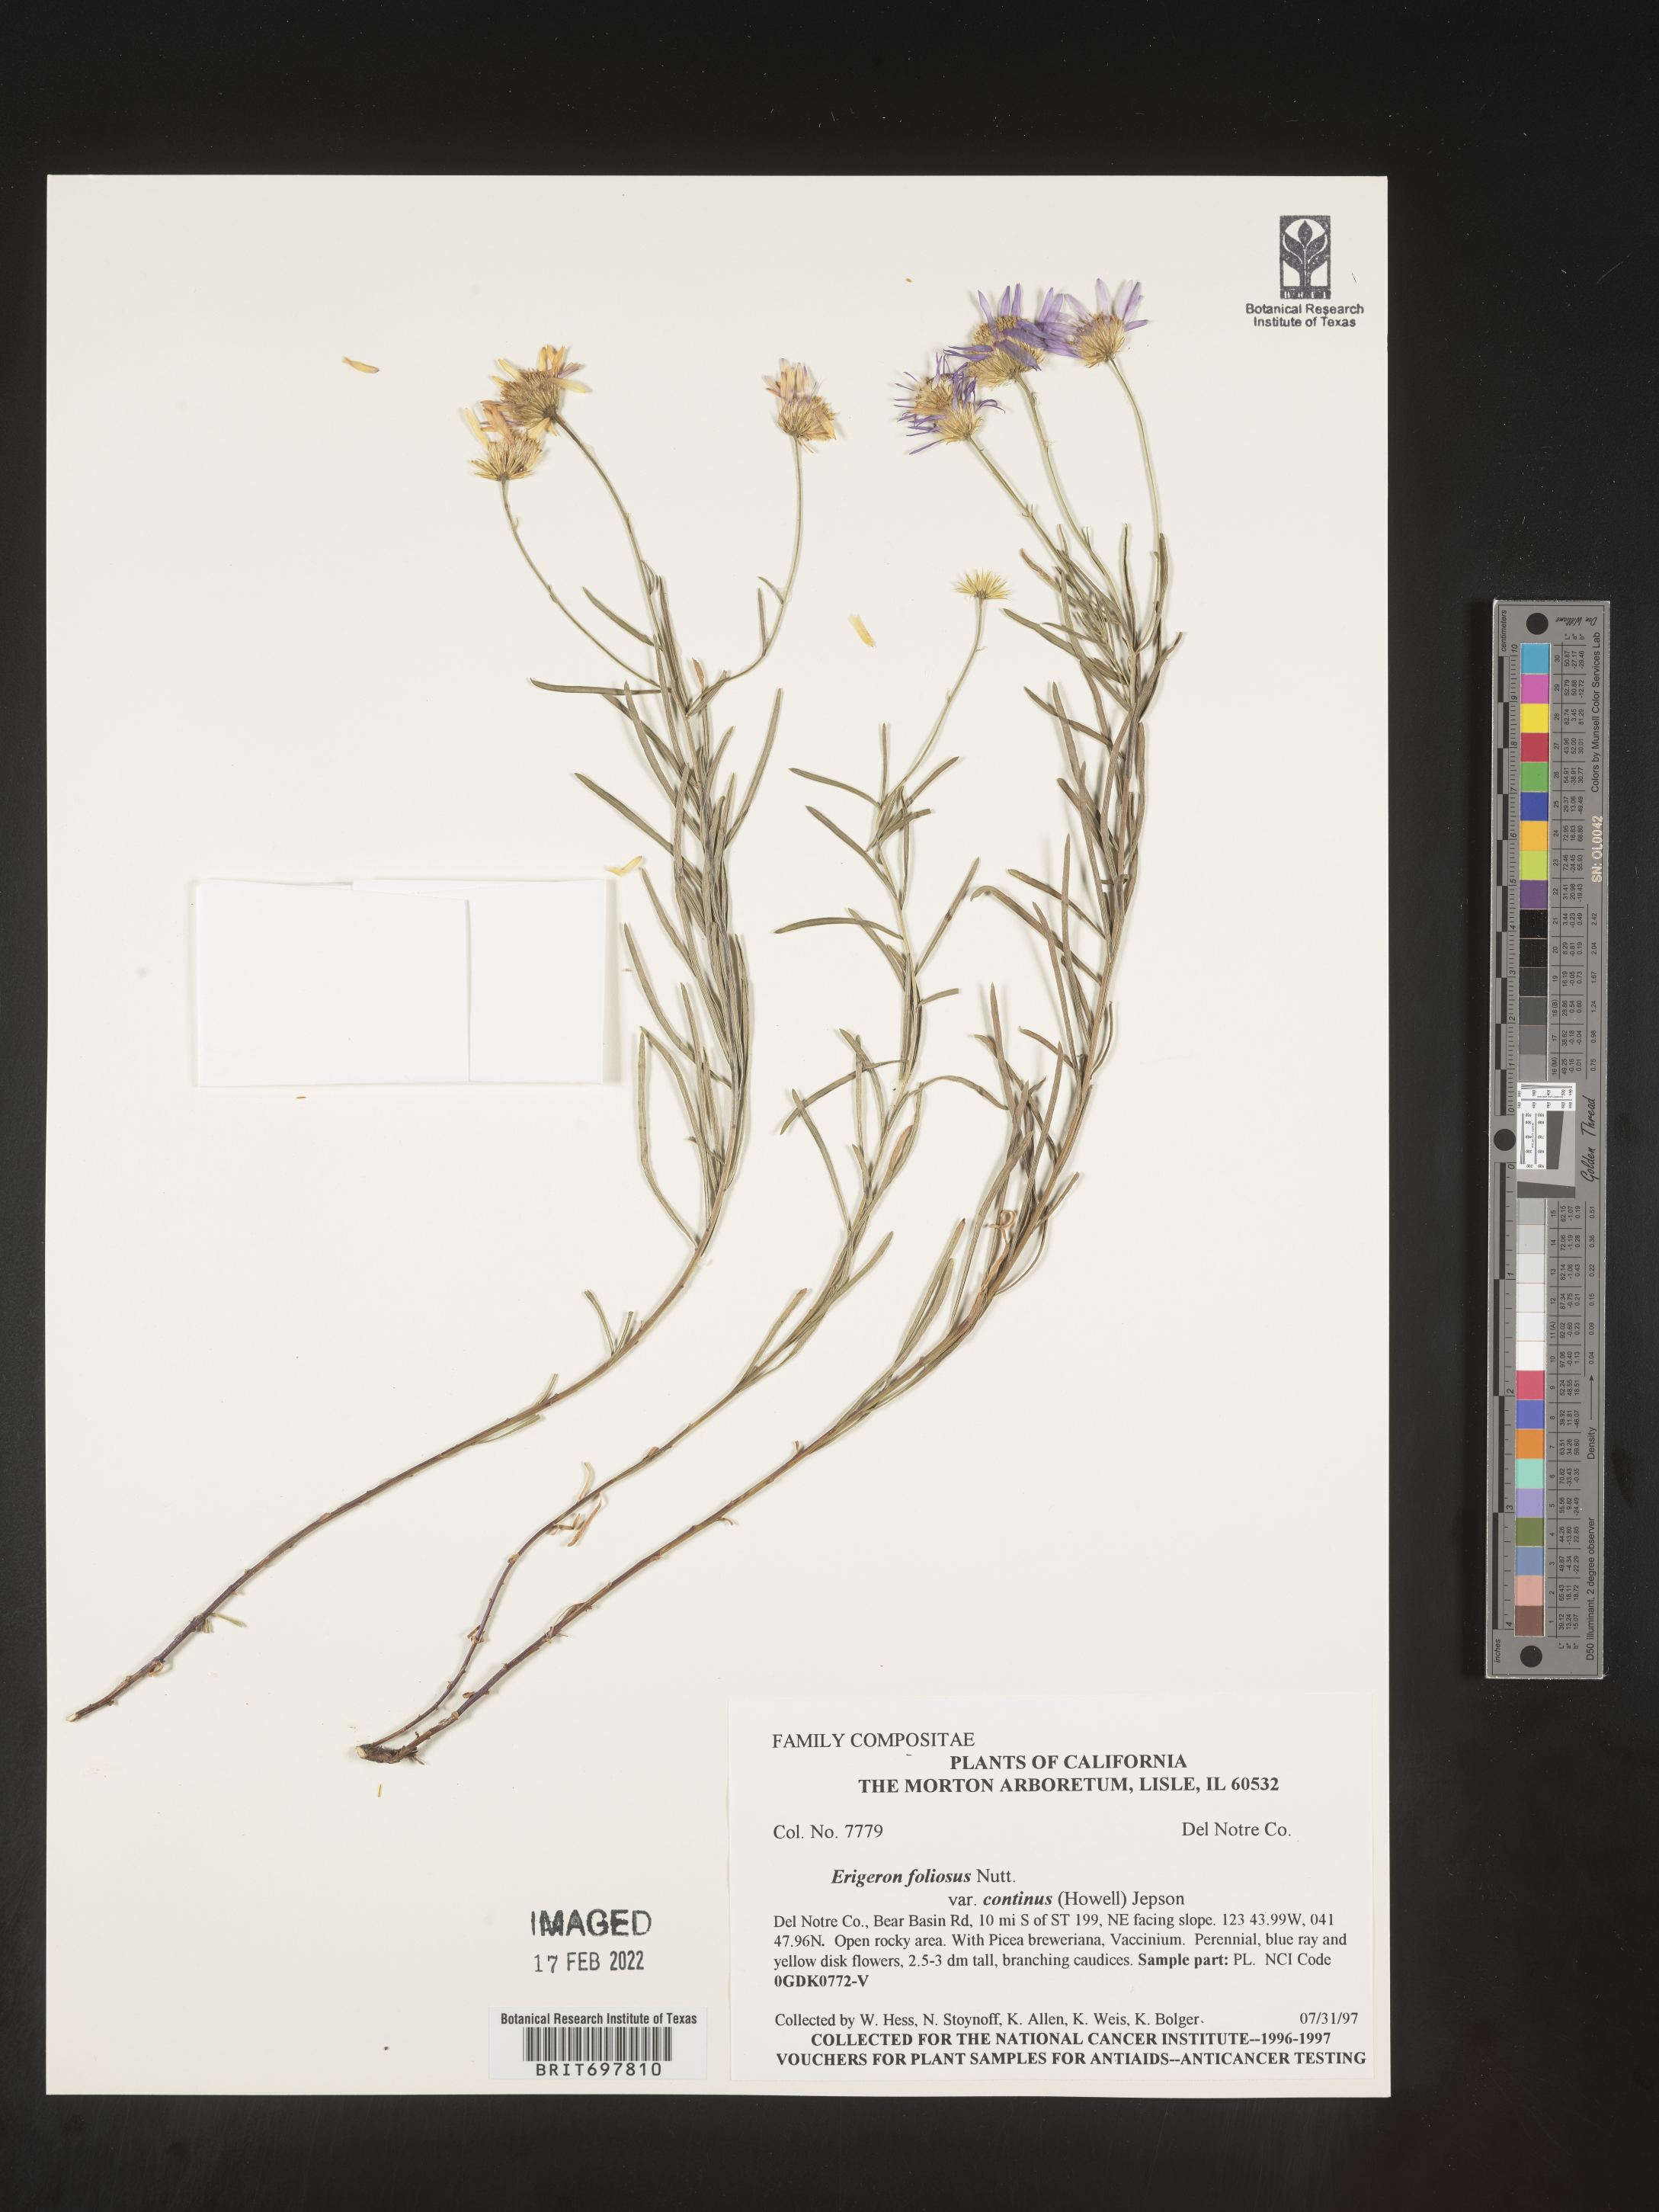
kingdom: Plantae
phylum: Tracheophyta
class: Magnoliopsida
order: Asterales
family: Asteraceae
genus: Erigeron
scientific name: Erigeron foliosus
